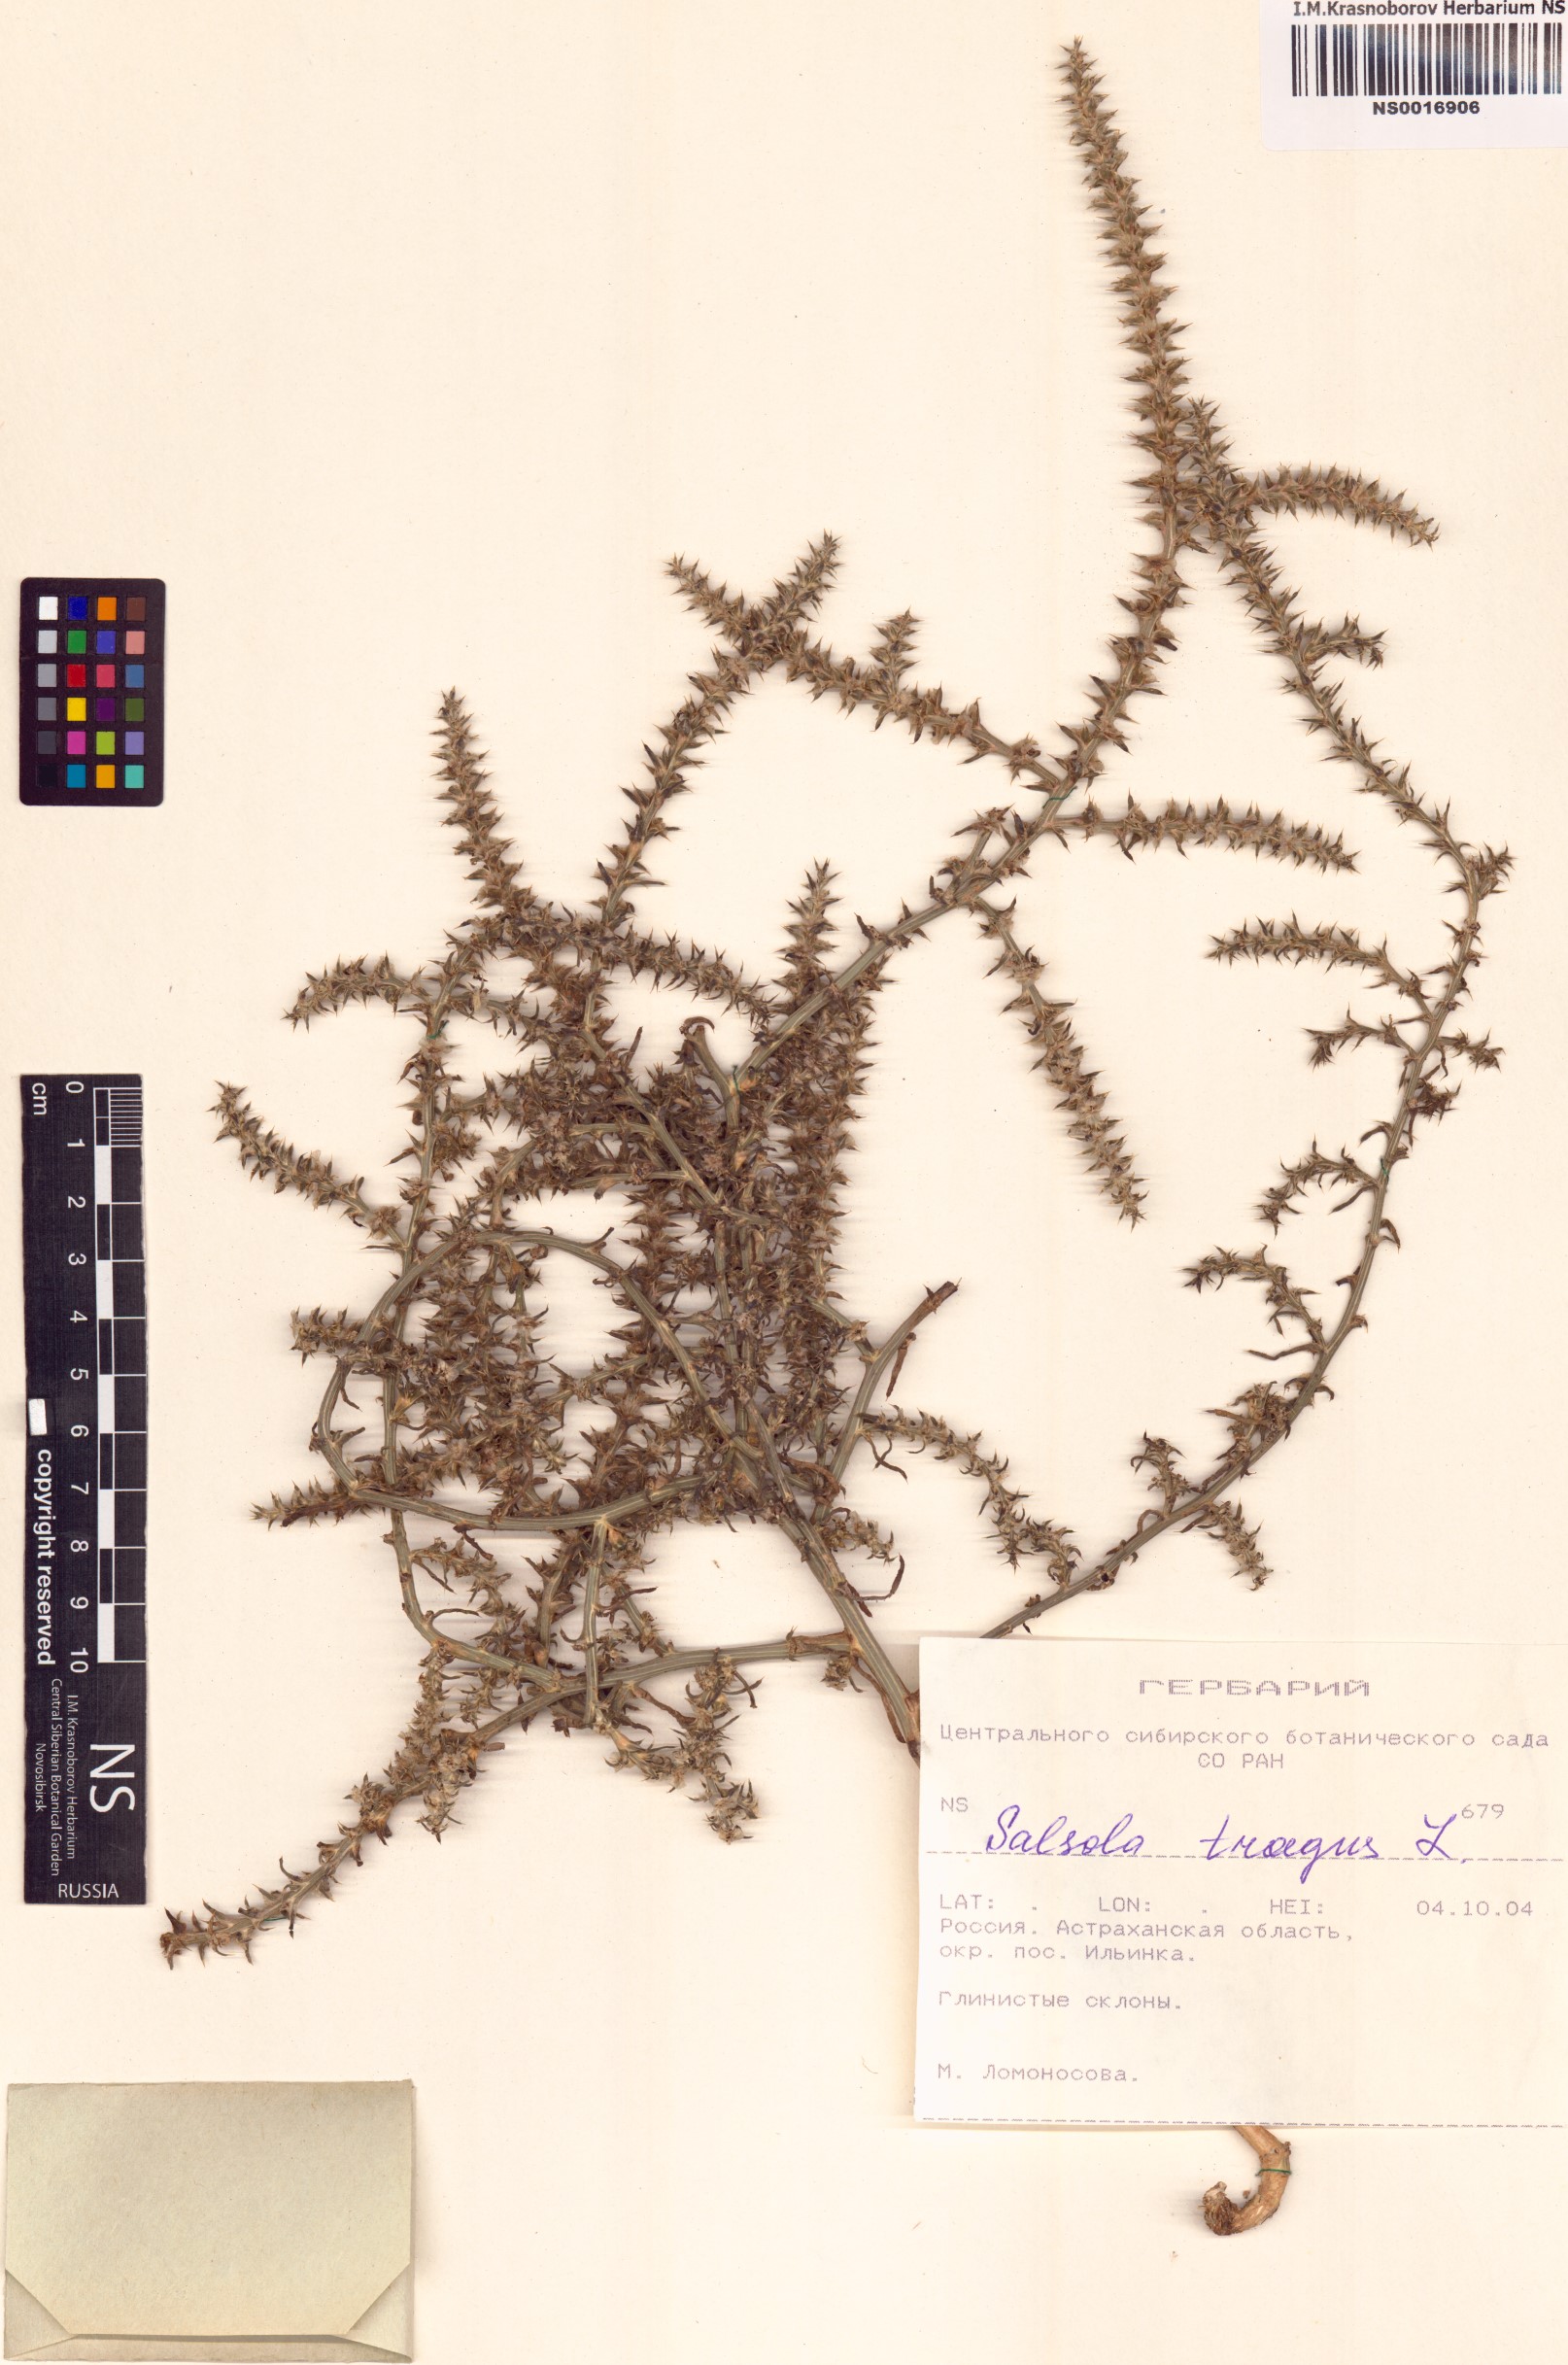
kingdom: Plantae
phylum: Tracheophyta
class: Magnoliopsida
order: Caryophyllales
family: Amaranthaceae
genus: Salsola
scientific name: Salsola tragus
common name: Prickly russian thistle
